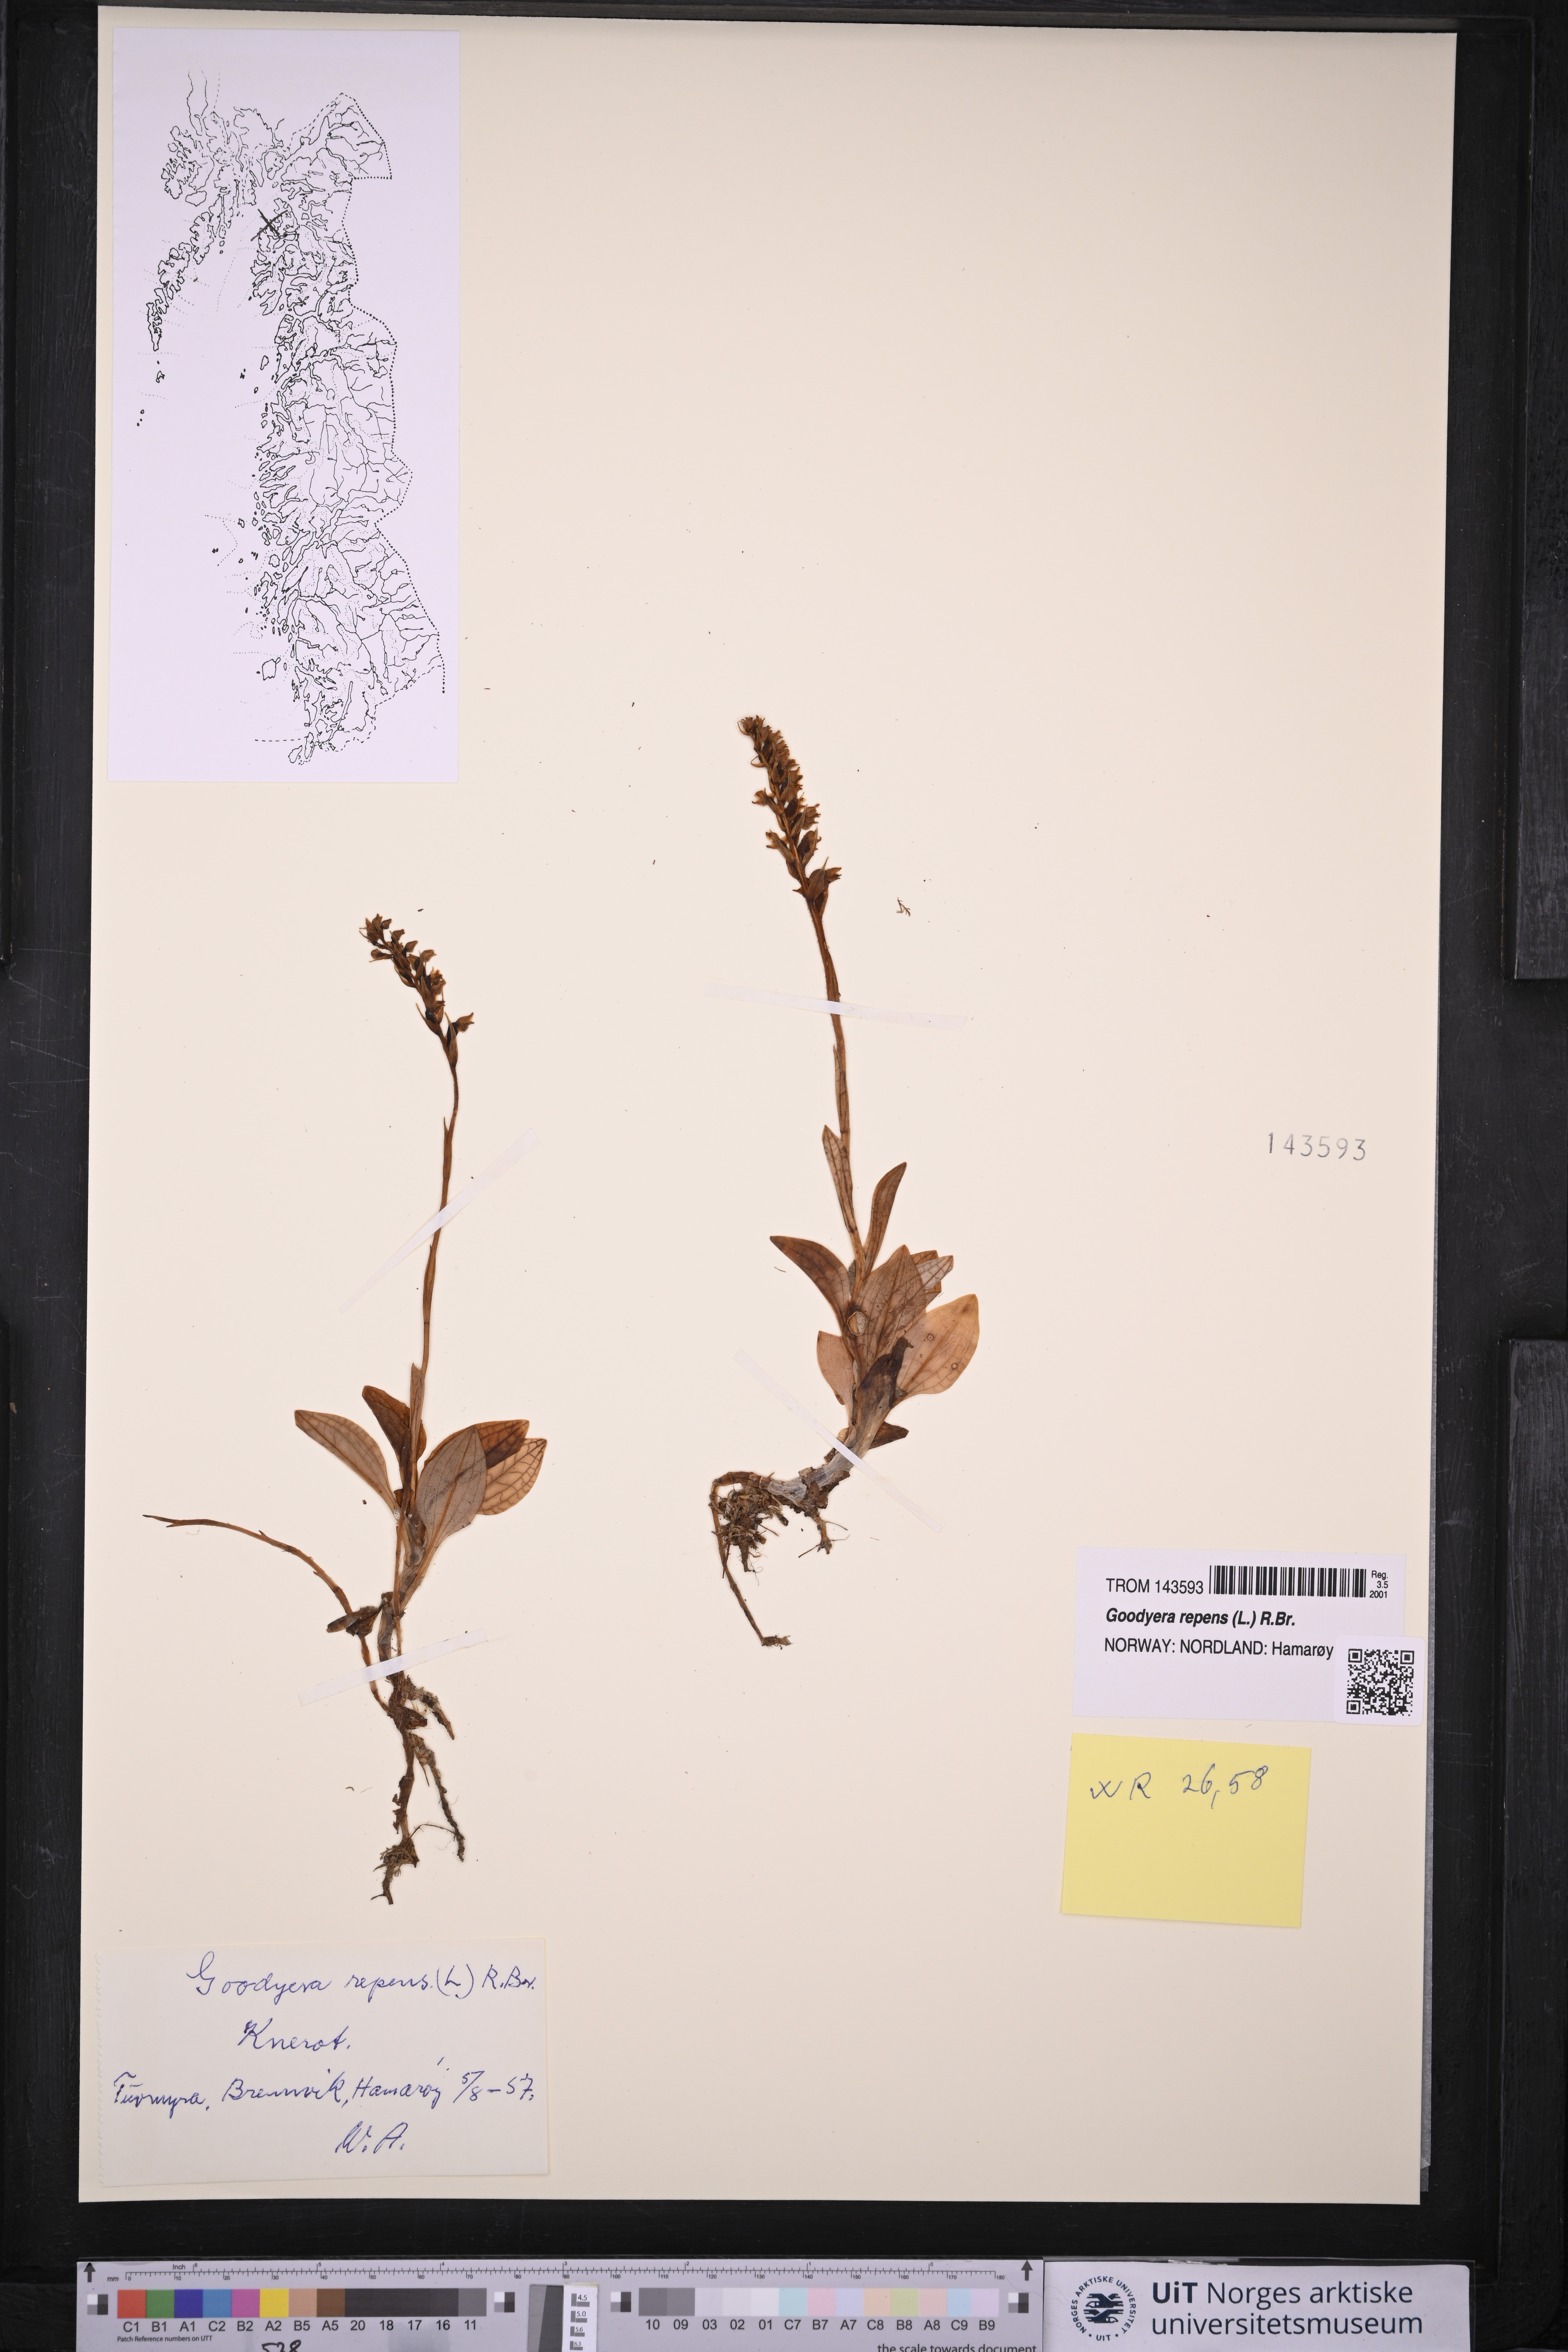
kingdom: Plantae
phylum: Tracheophyta
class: Liliopsida
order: Asparagales
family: Orchidaceae
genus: Goodyera
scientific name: Goodyera repens
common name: Creeping lady's-tresses
